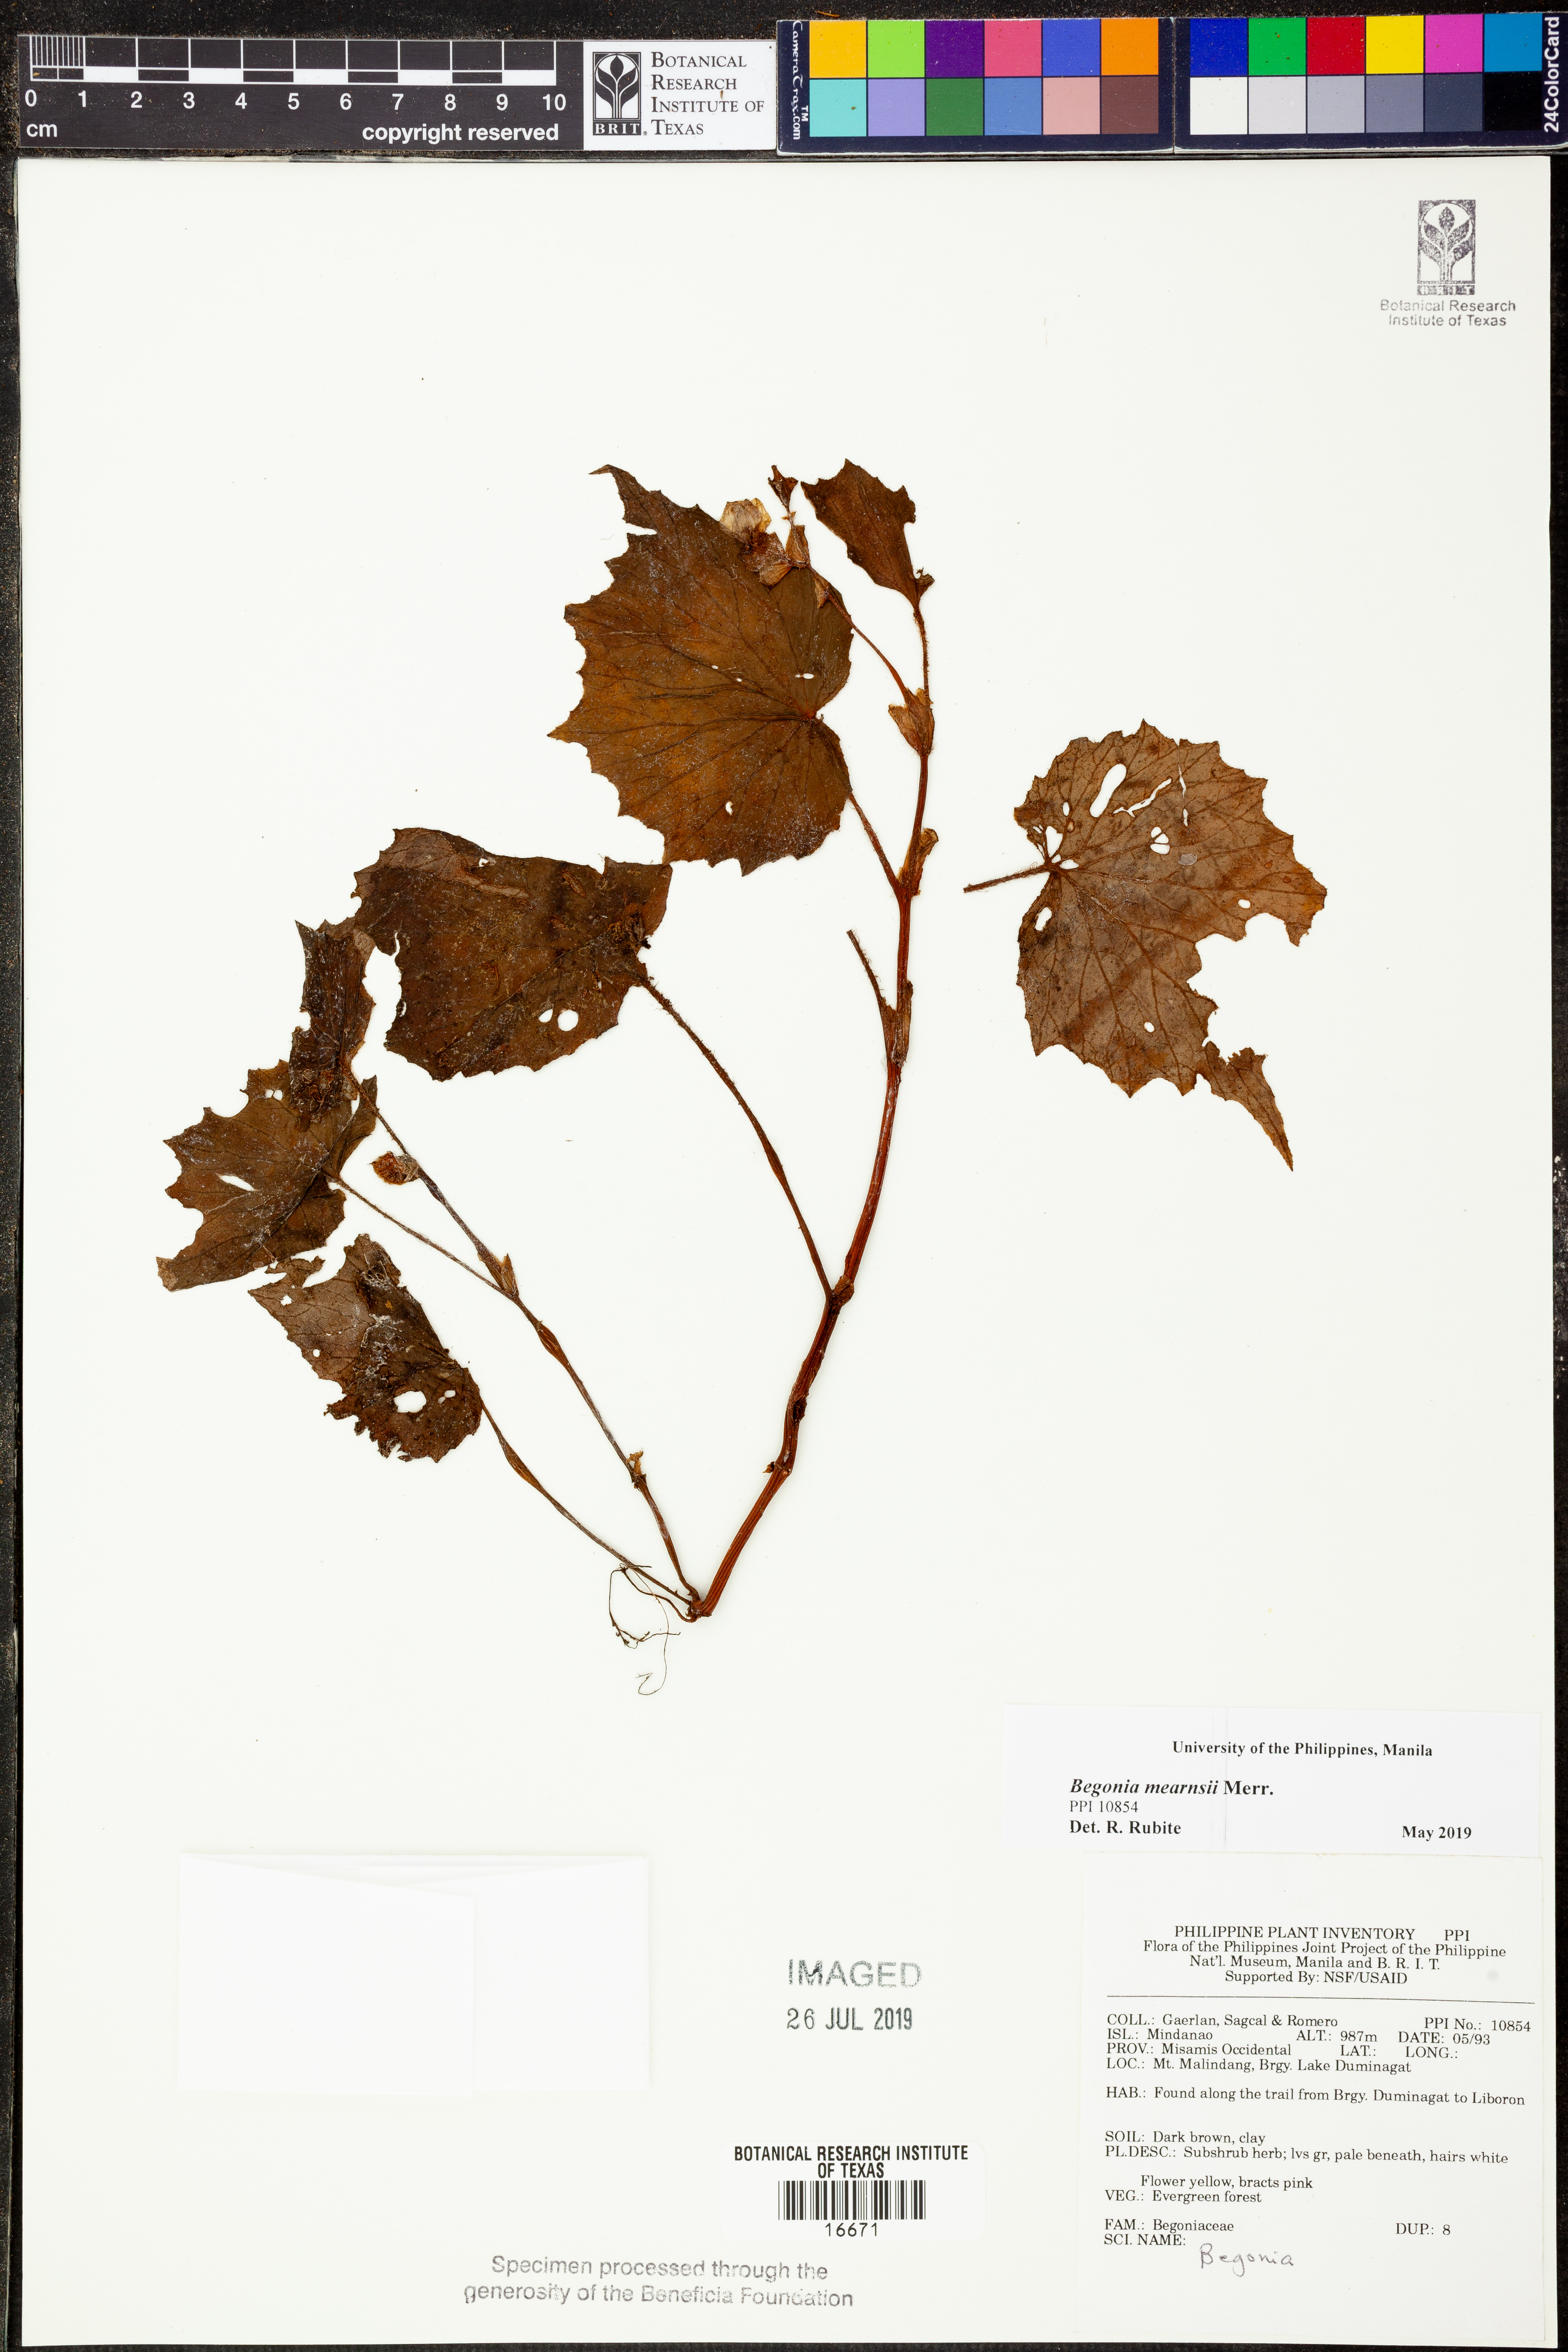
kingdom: Plantae
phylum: Tracheophyta
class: Magnoliopsida
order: Cucurbitales
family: Begoniaceae
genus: Begonia
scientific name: Begonia mearnsii
